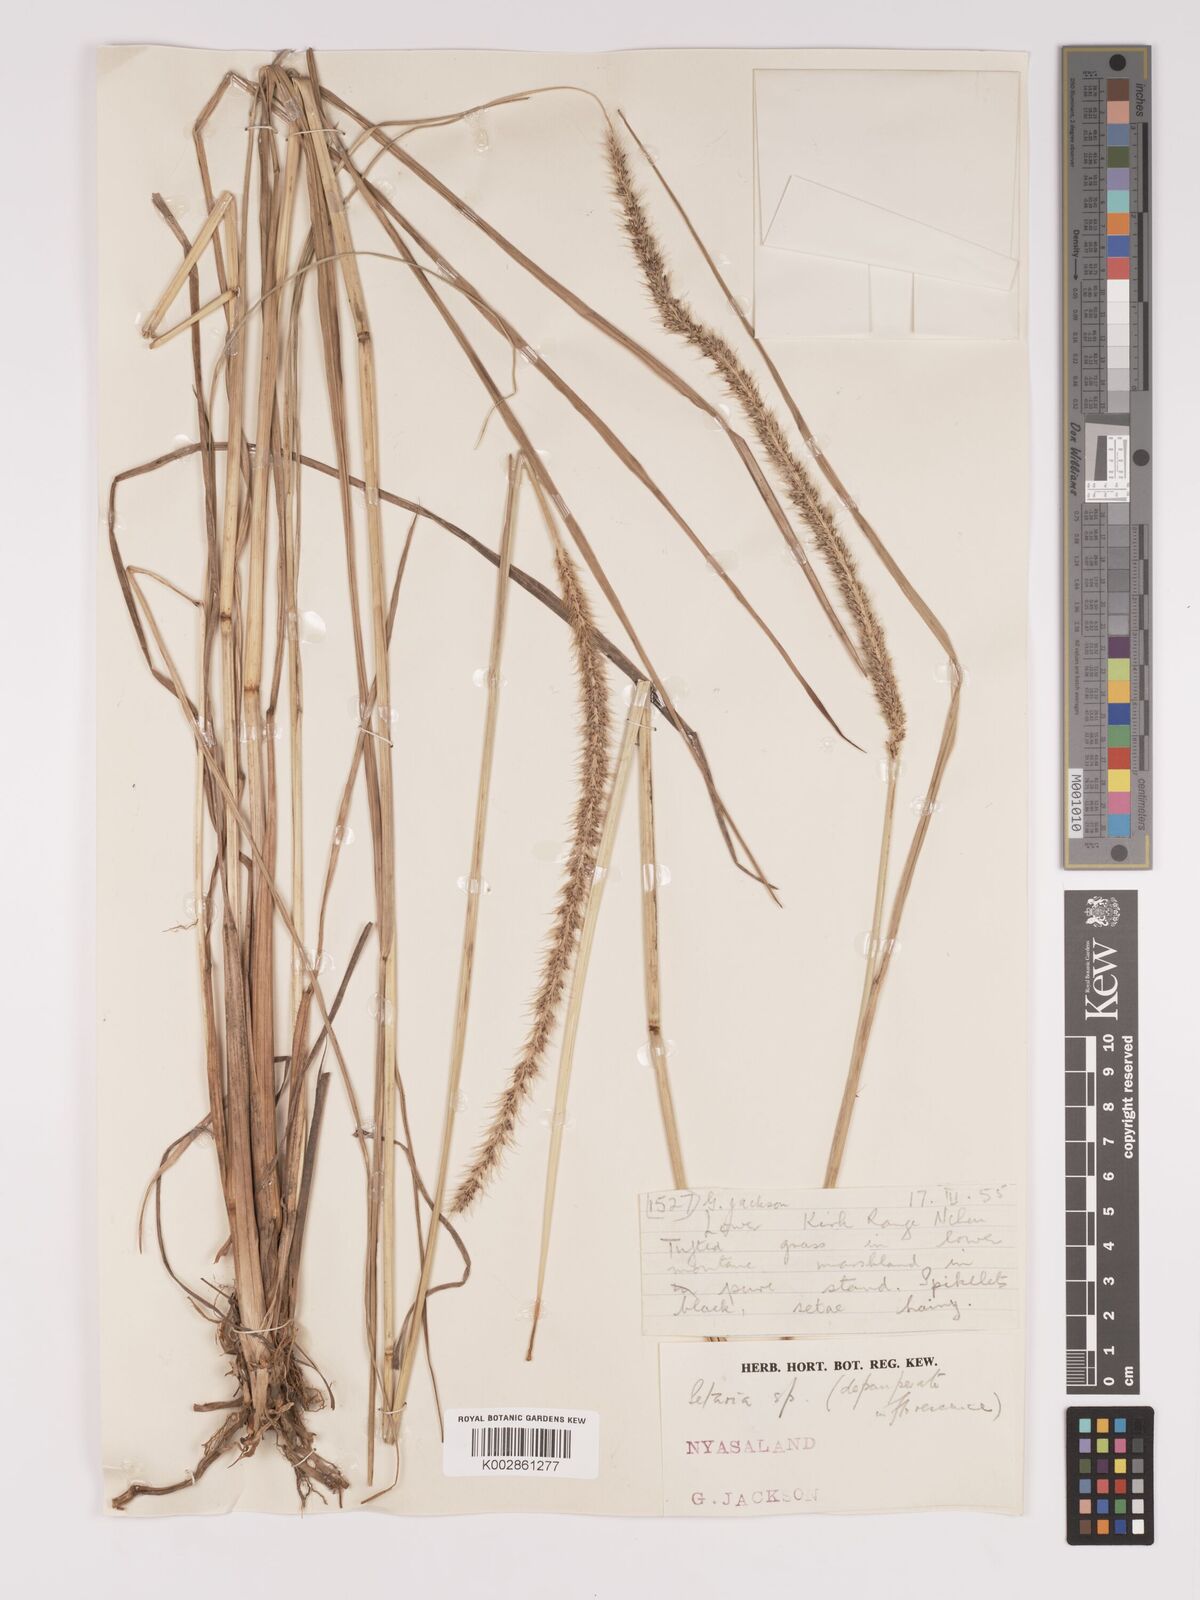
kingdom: Plantae
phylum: Tracheophyta
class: Liliopsida
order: Poales
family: Poaceae
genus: Setaria
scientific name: Setaria atrata
